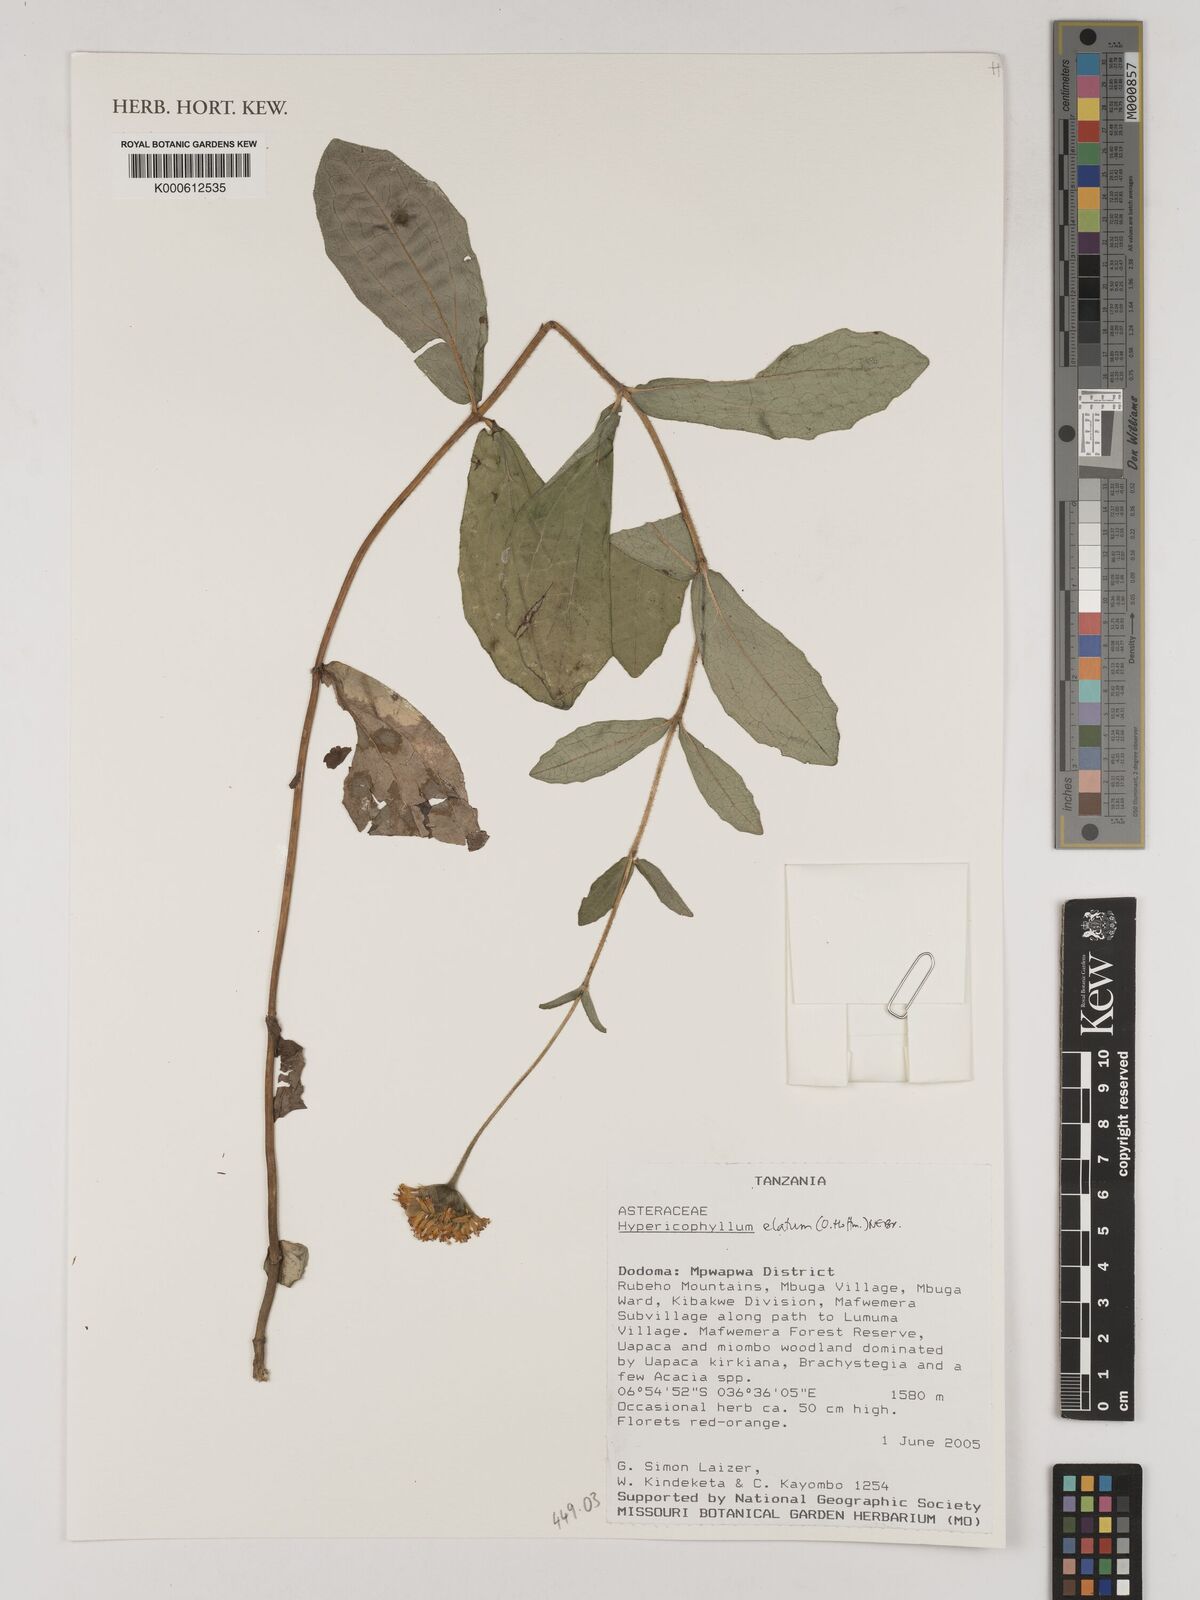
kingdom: Plantae
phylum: Tracheophyta
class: Magnoliopsida
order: Asterales
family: Asteraceae
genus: Hypericophyllum
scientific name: Hypericophyllum elatum
